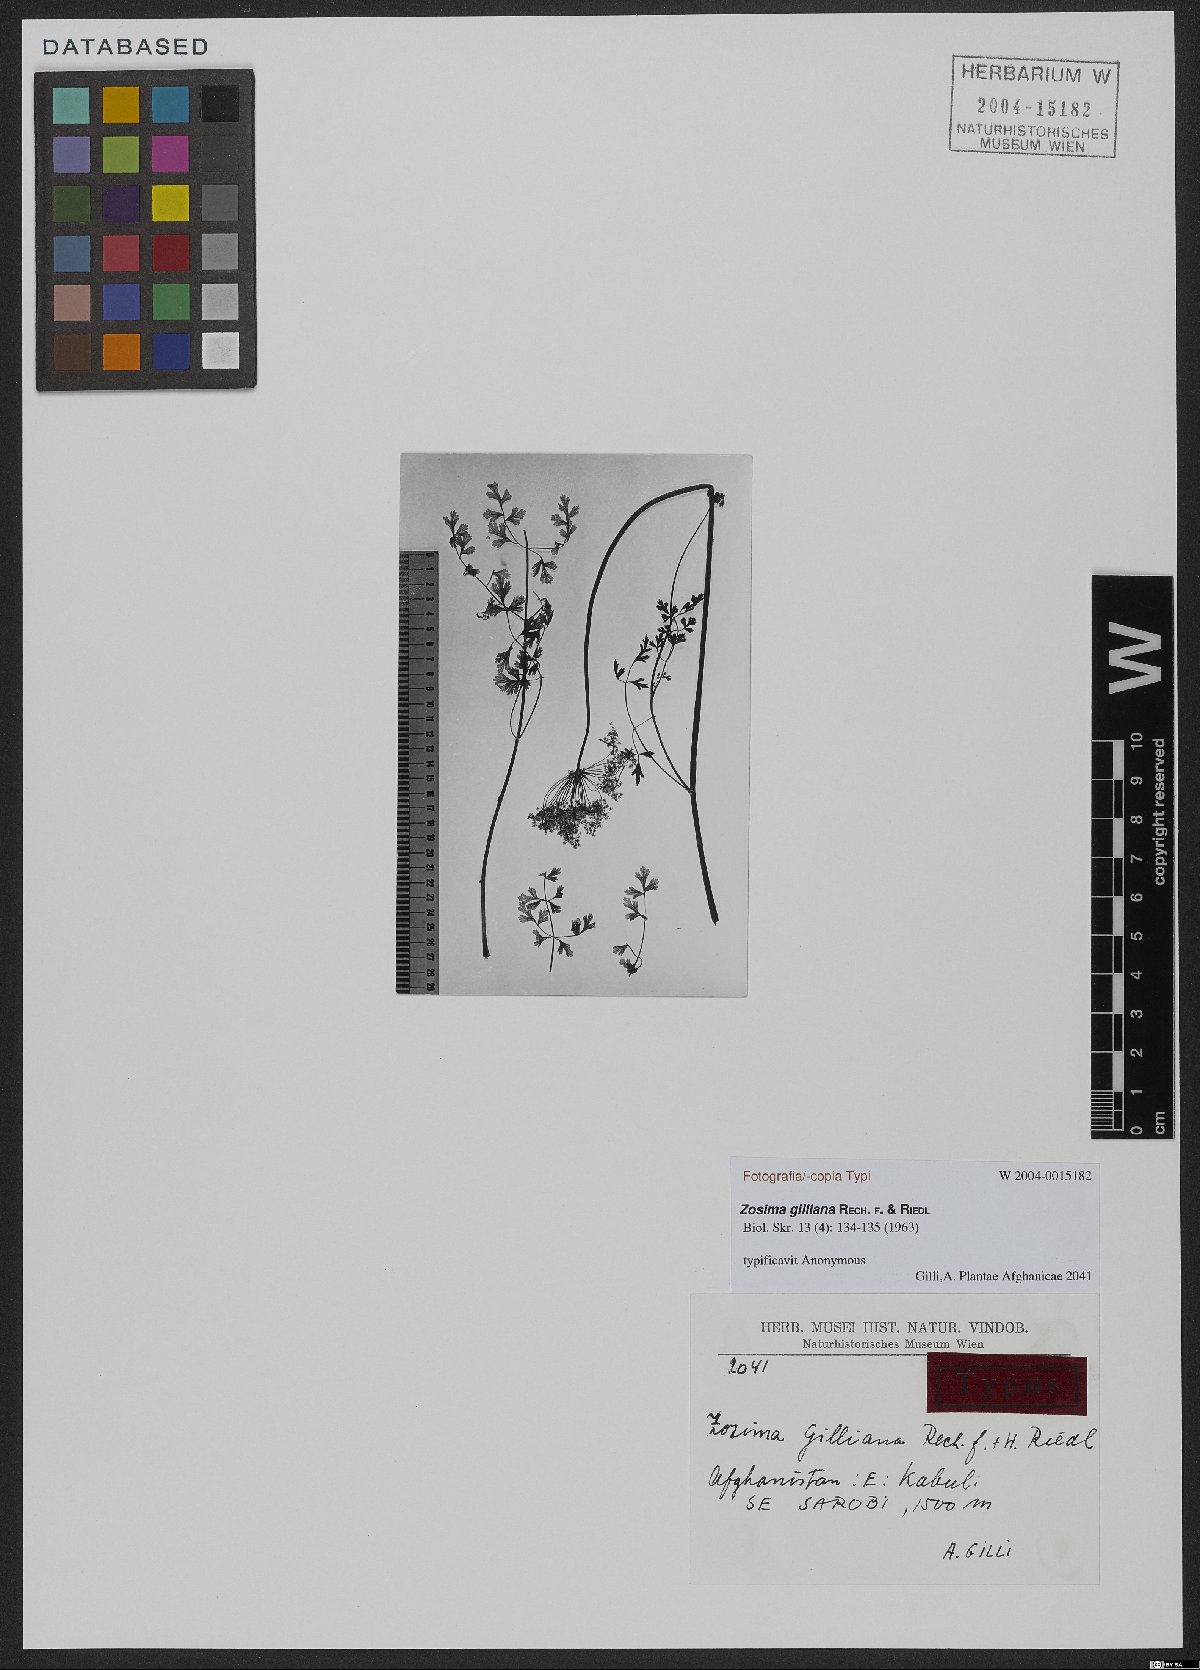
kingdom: Plantae
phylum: Tracheophyta
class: Magnoliopsida
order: Apiales
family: Apiaceae
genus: Zosima
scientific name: Zosima gilliana
